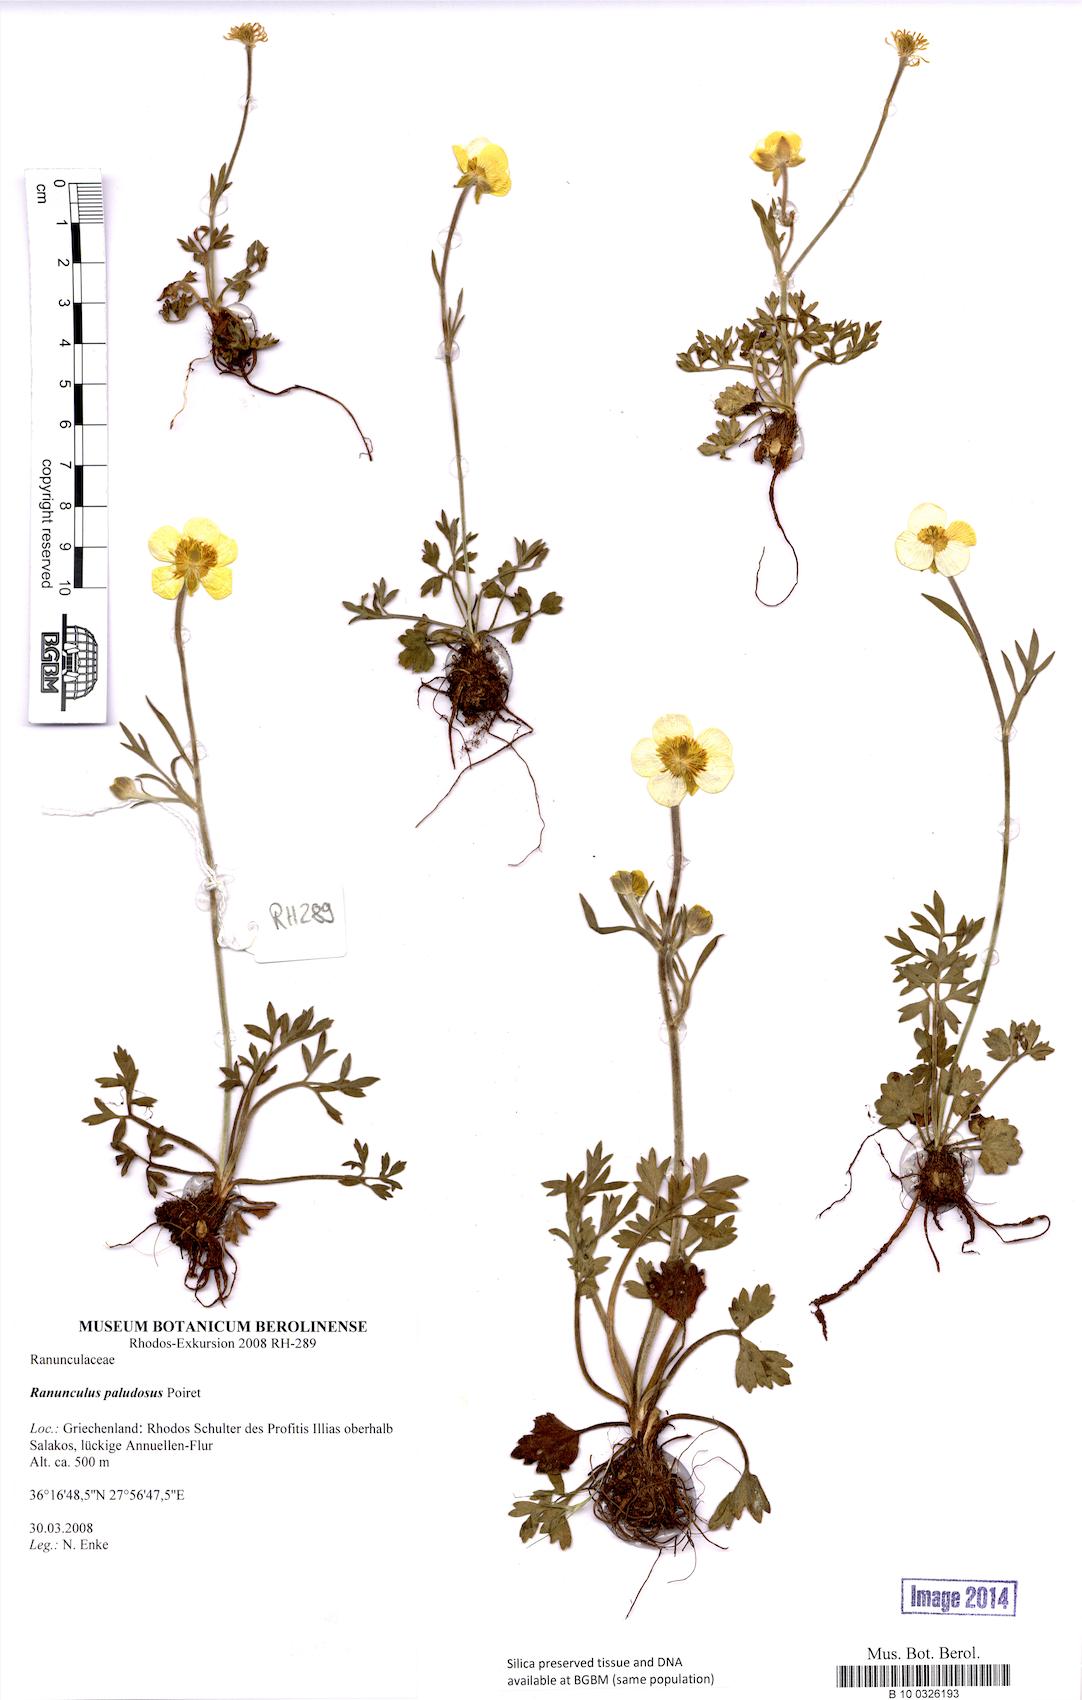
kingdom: Plantae
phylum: Tracheophyta
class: Magnoliopsida
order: Ranunculales
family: Ranunculaceae
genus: Ranunculus
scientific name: Ranunculus paludosus
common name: Jersey buttercup
